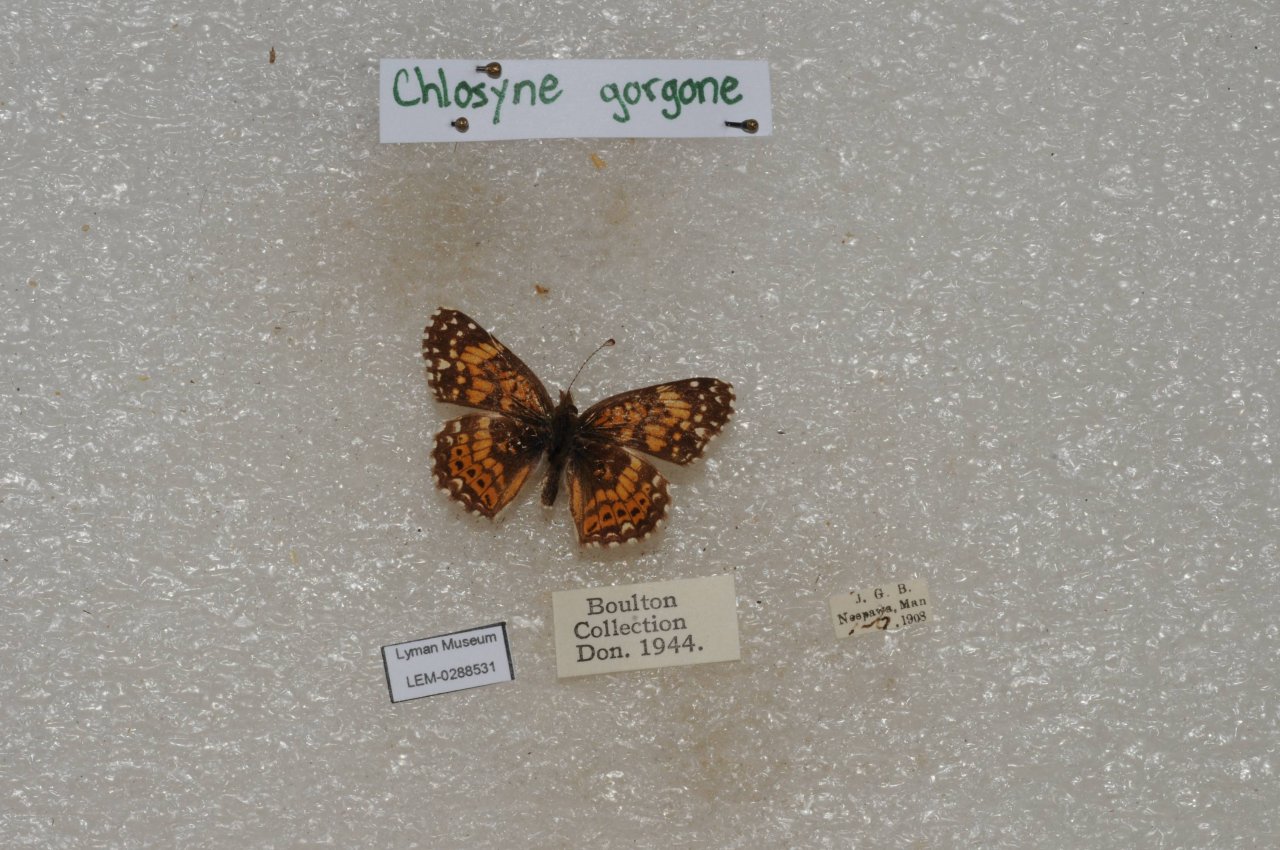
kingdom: Animalia
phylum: Arthropoda
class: Insecta
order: Lepidoptera
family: Nymphalidae
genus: Chlosyne
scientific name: Chlosyne gorgone
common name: Gorgone Checkerspot
